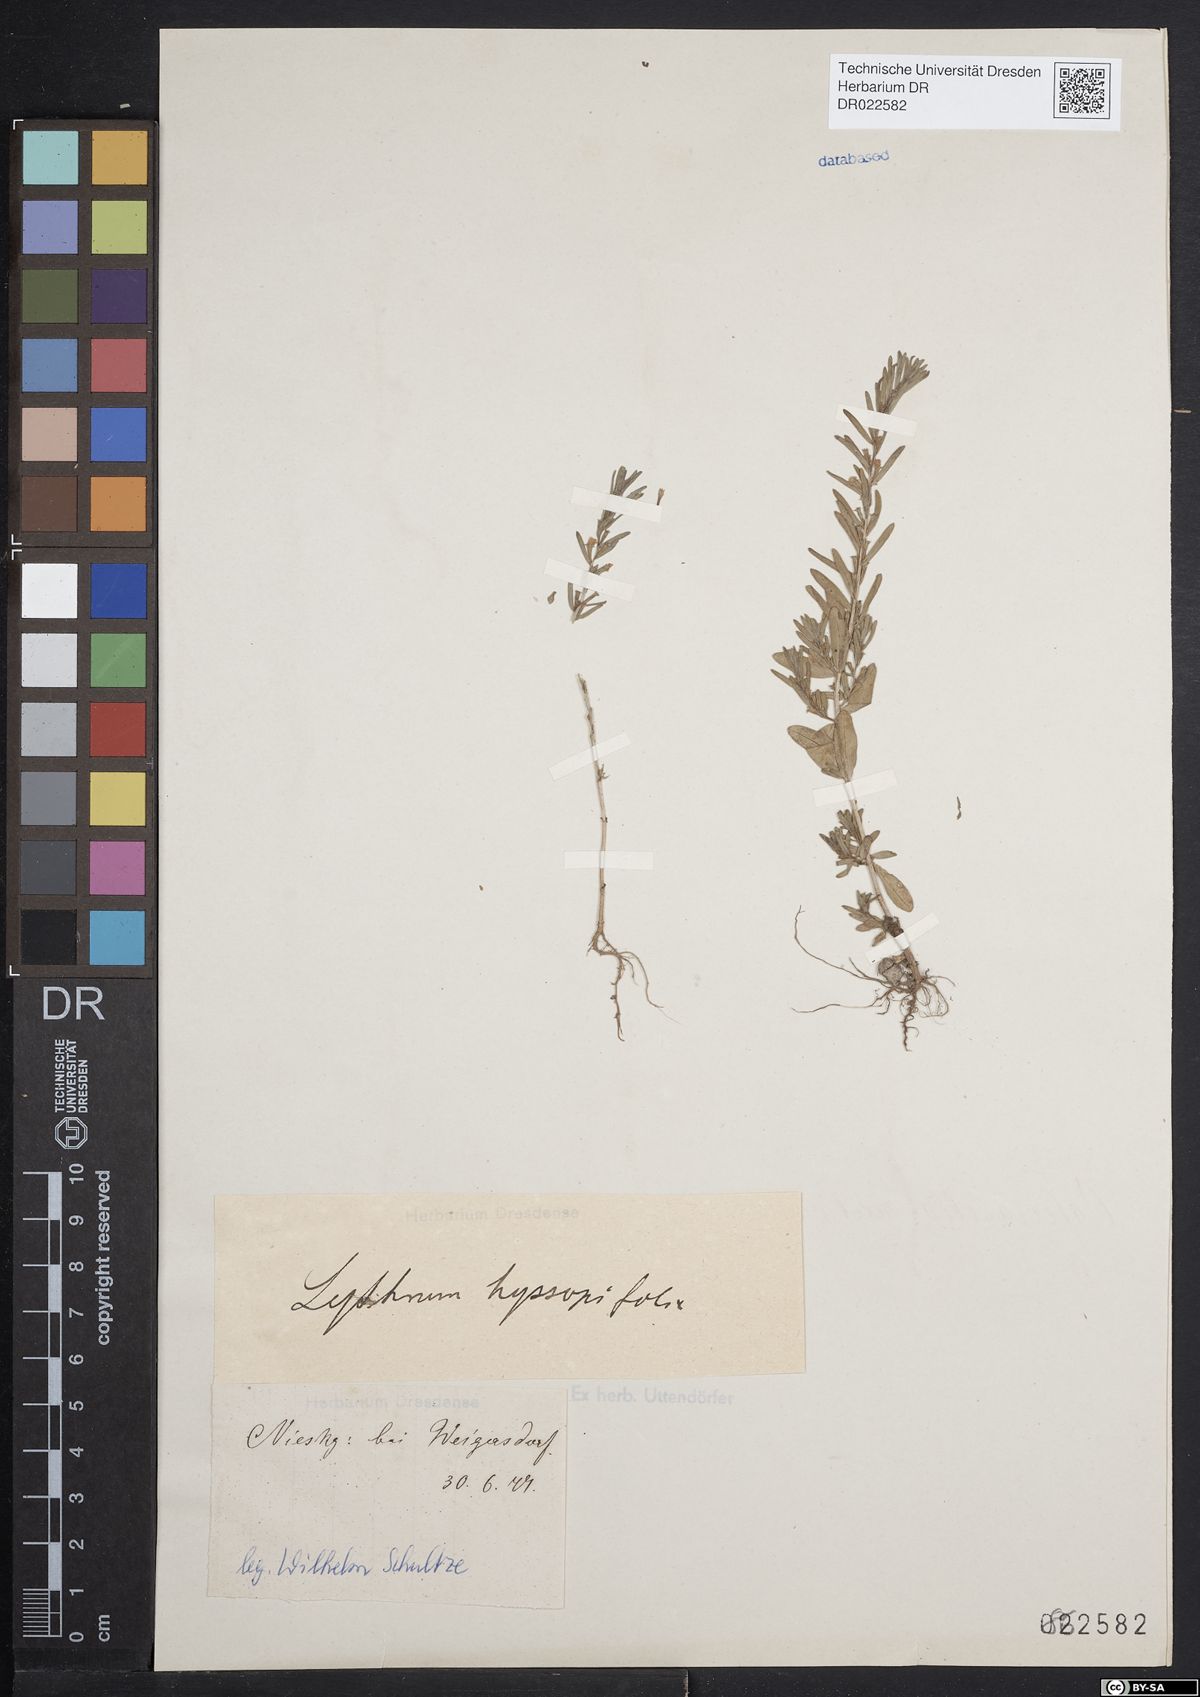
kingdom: Plantae
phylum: Tracheophyta
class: Magnoliopsida
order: Myrtales
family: Lythraceae
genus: Lythrum
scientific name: Lythrum hyssopifolia
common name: Grass-poly
